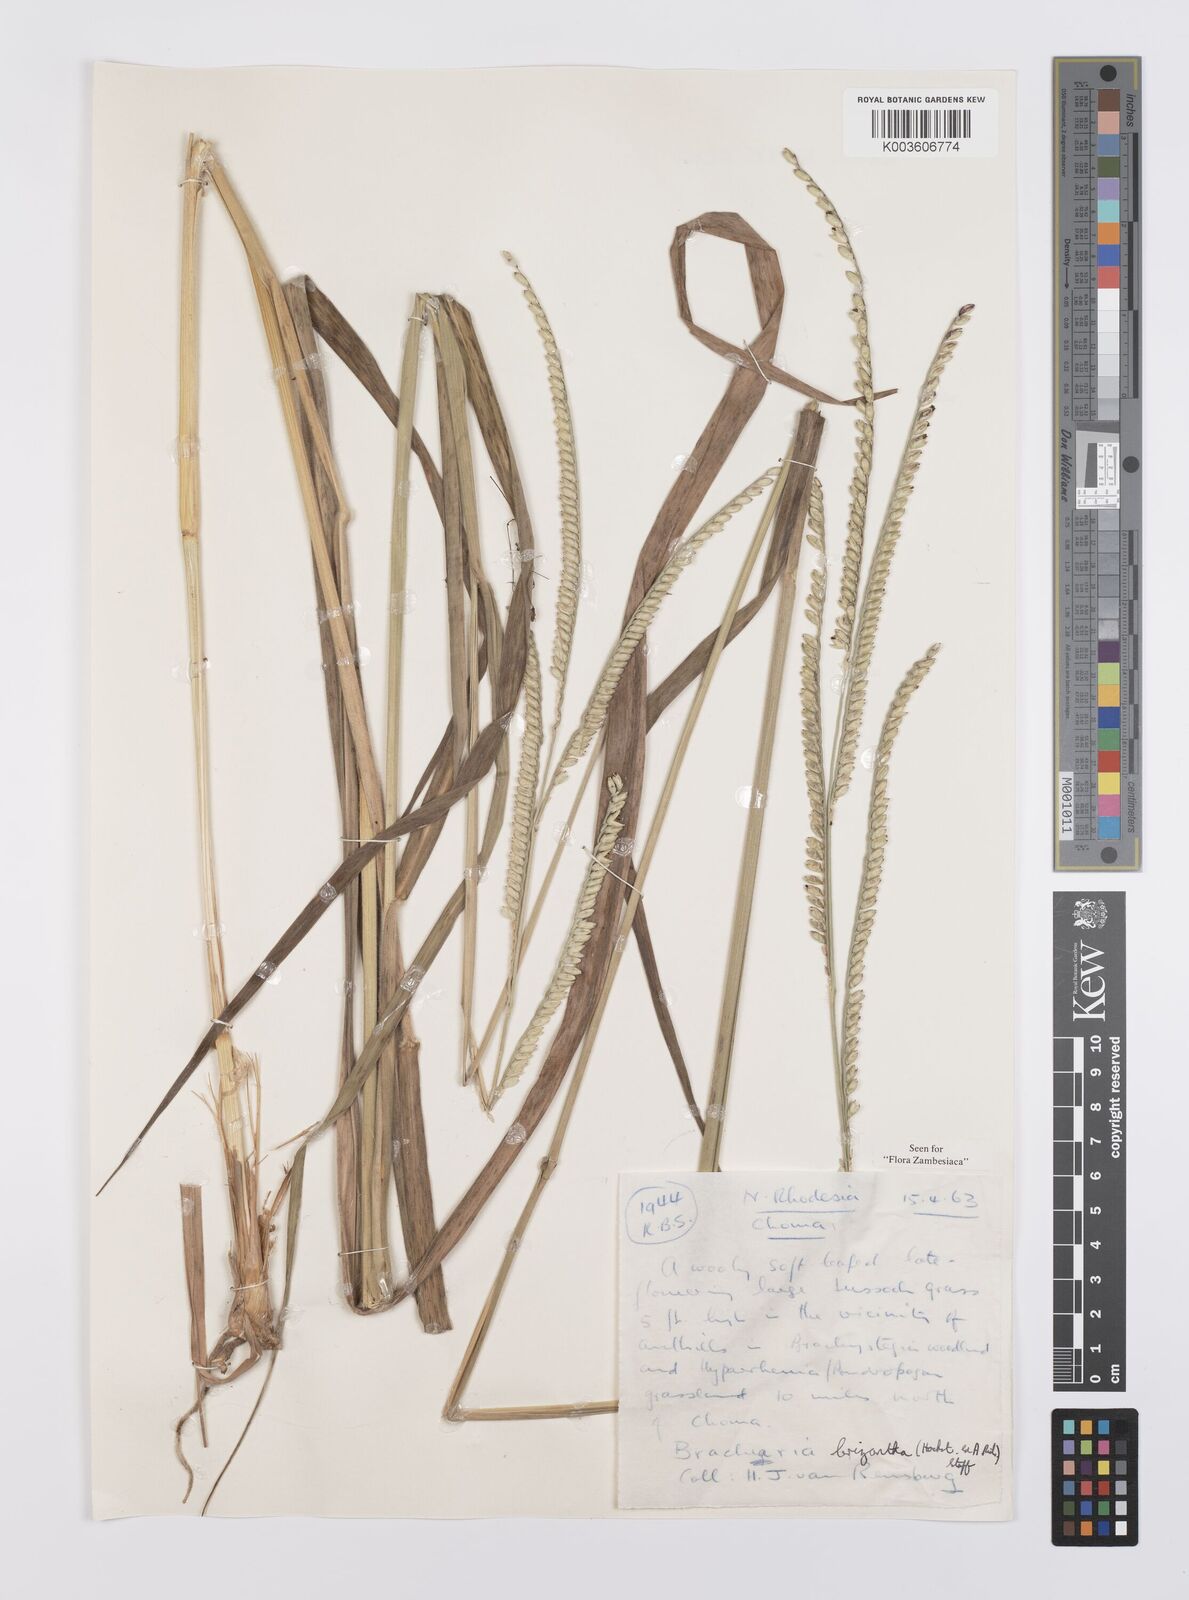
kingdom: Plantae
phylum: Tracheophyta
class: Liliopsida
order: Poales
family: Poaceae
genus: Urochloa
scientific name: Urochloa brizantha
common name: Palisade signalgrass
